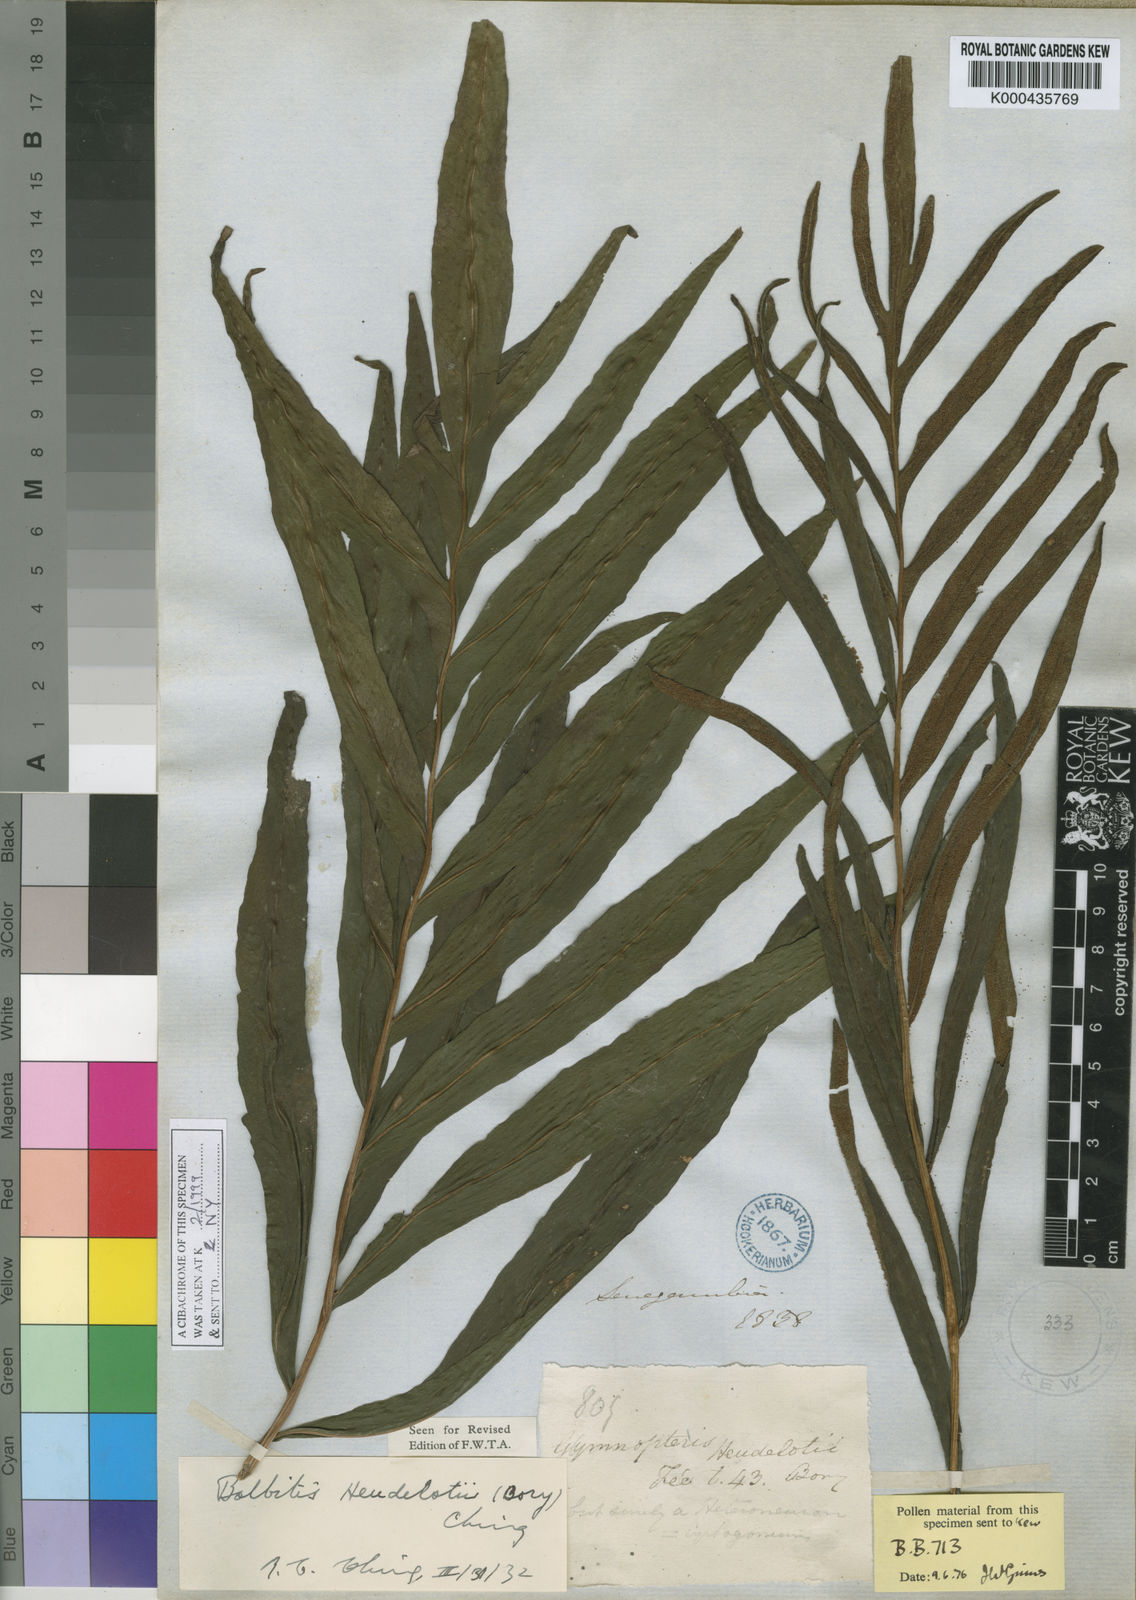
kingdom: Plantae
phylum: Tracheophyta
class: Polypodiopsida
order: Polypodiales
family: Dryopteridaceae
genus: Bolbitis
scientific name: Bolbitis heudelotii
